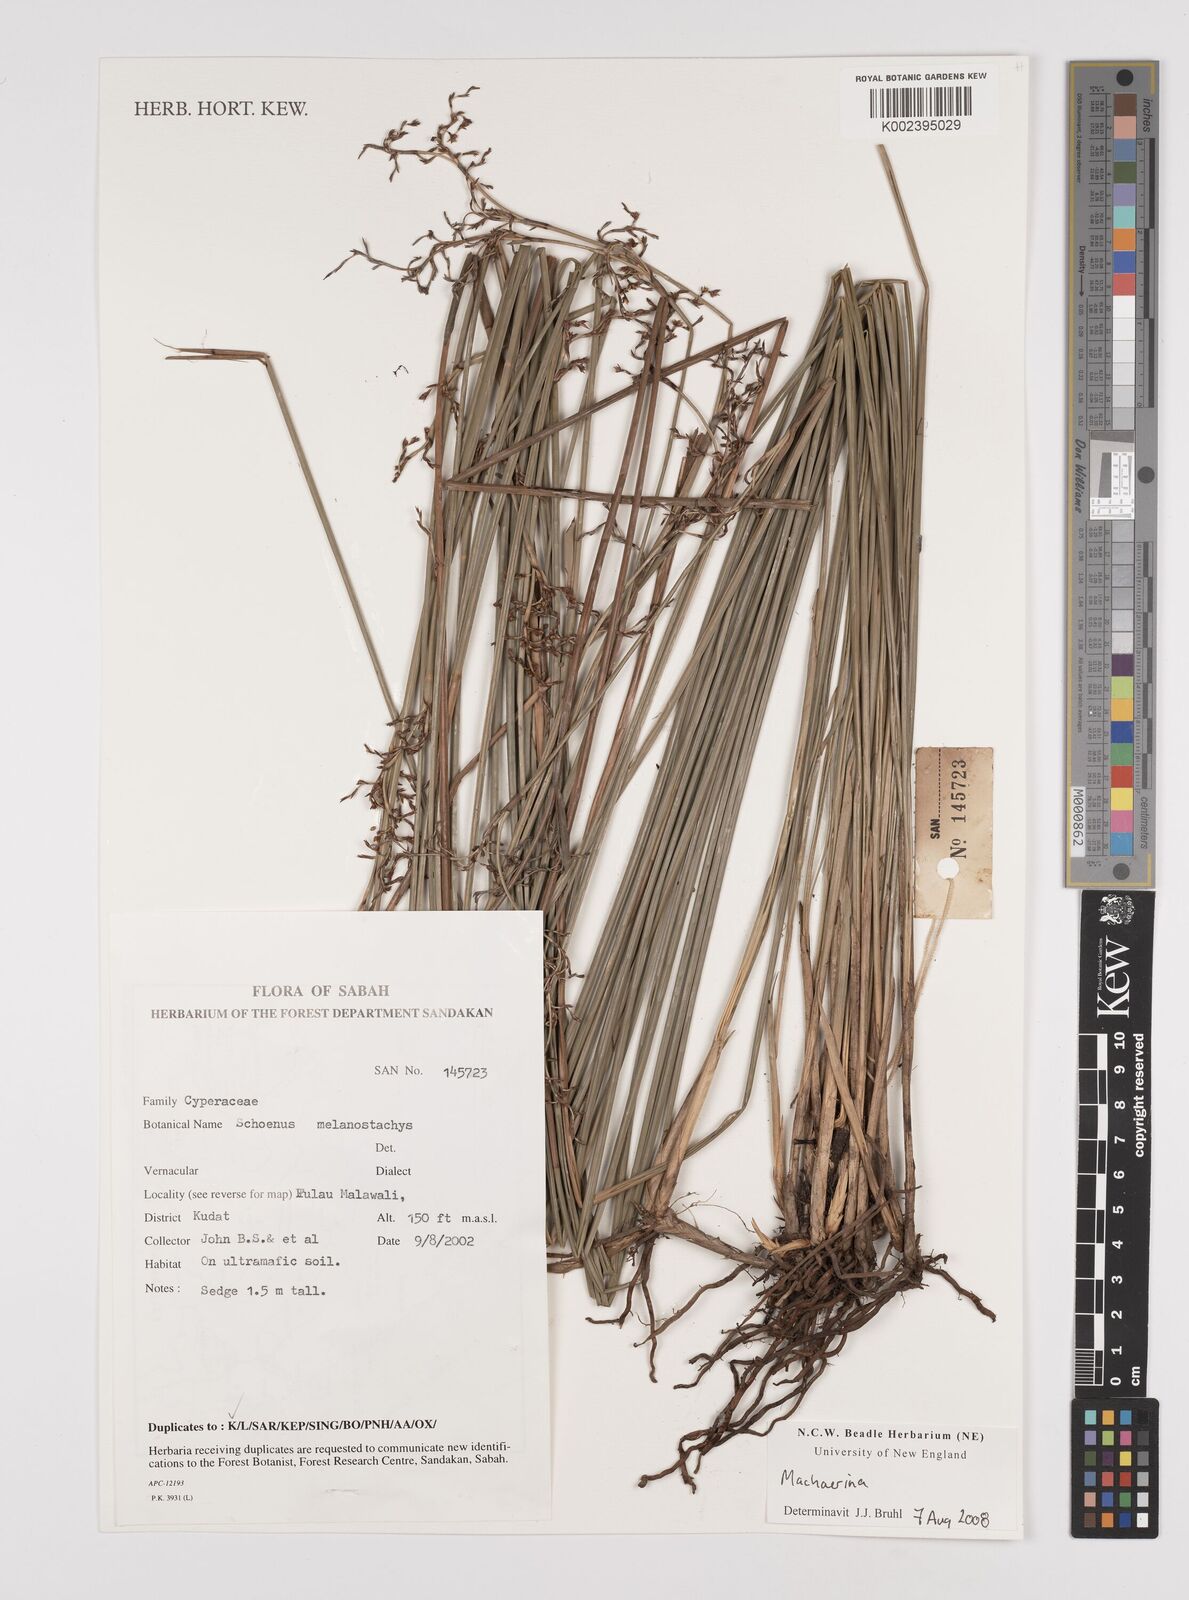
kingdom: Plantae
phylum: Tracheophyta
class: Liliopsida
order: Poales
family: Cyperaceae
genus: Machaerina
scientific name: Machaerina
